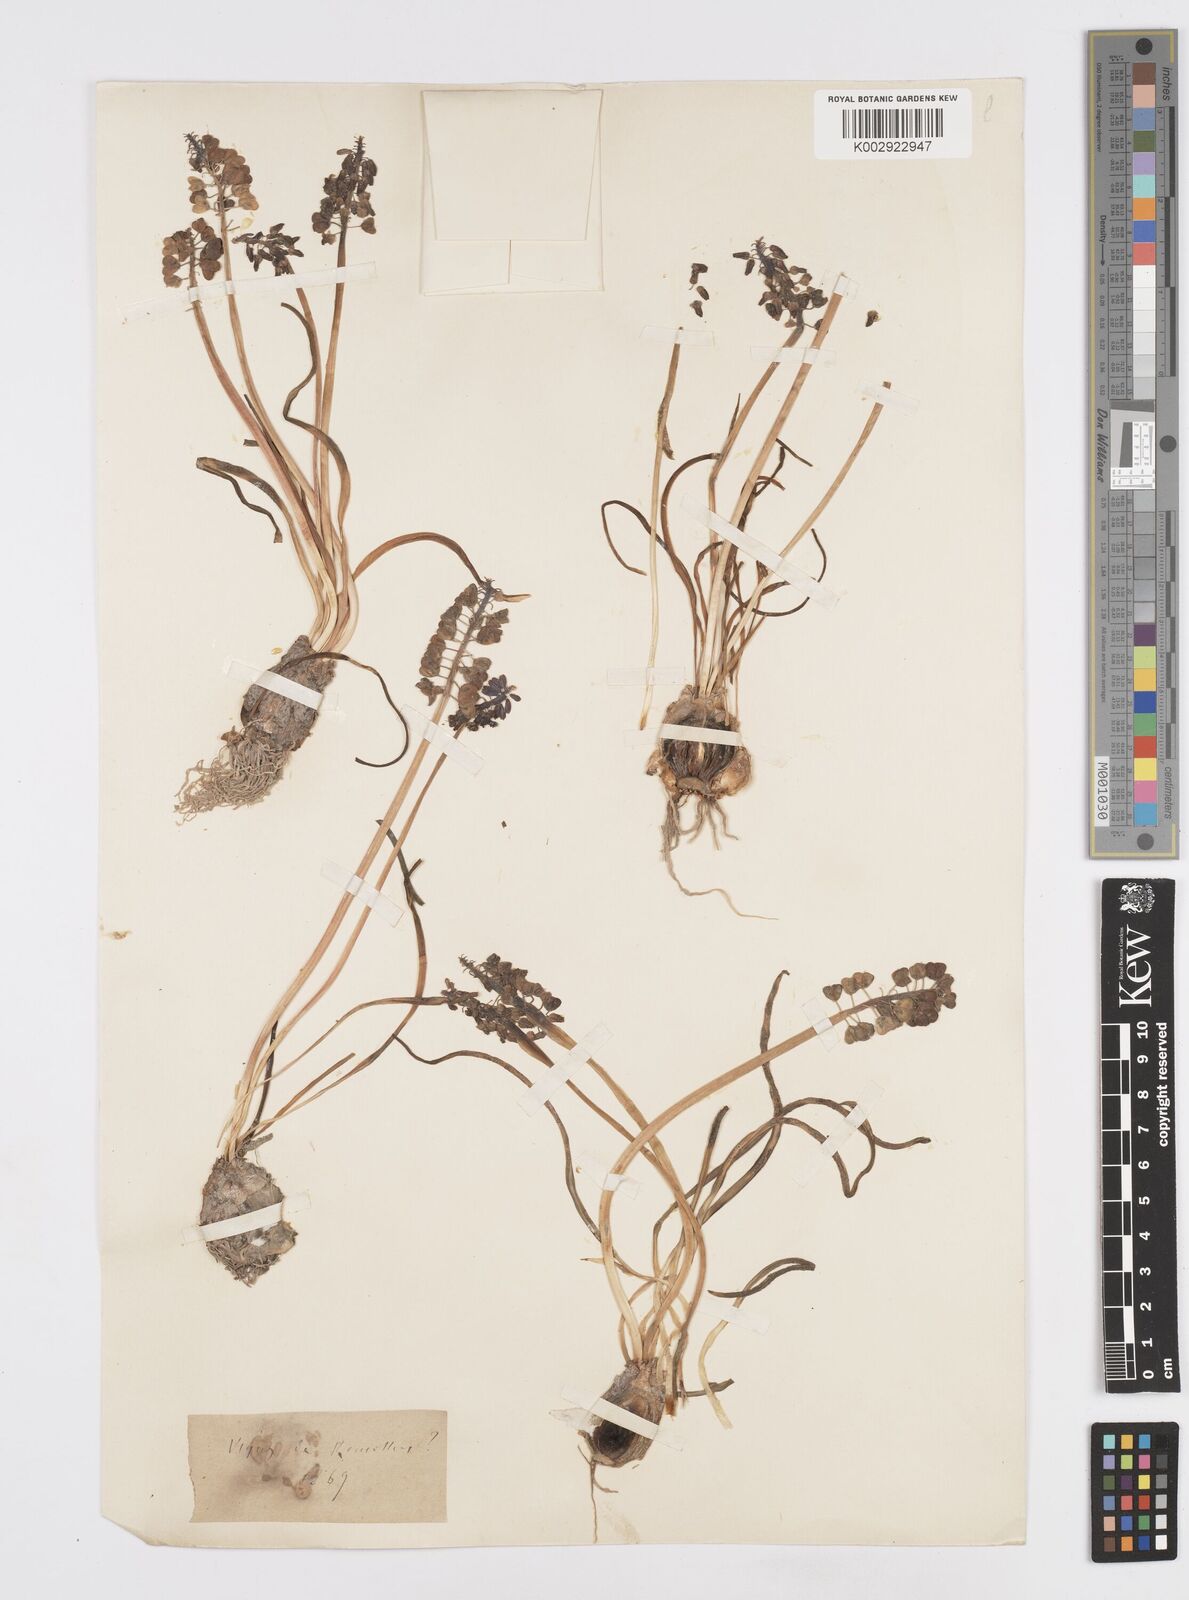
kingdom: Plantae
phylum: Tracheophyta
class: Liliopsida
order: Asparagales
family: Asparagaceae
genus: Muscari
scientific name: Muscari neglectum
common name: Grape-hyacinth
